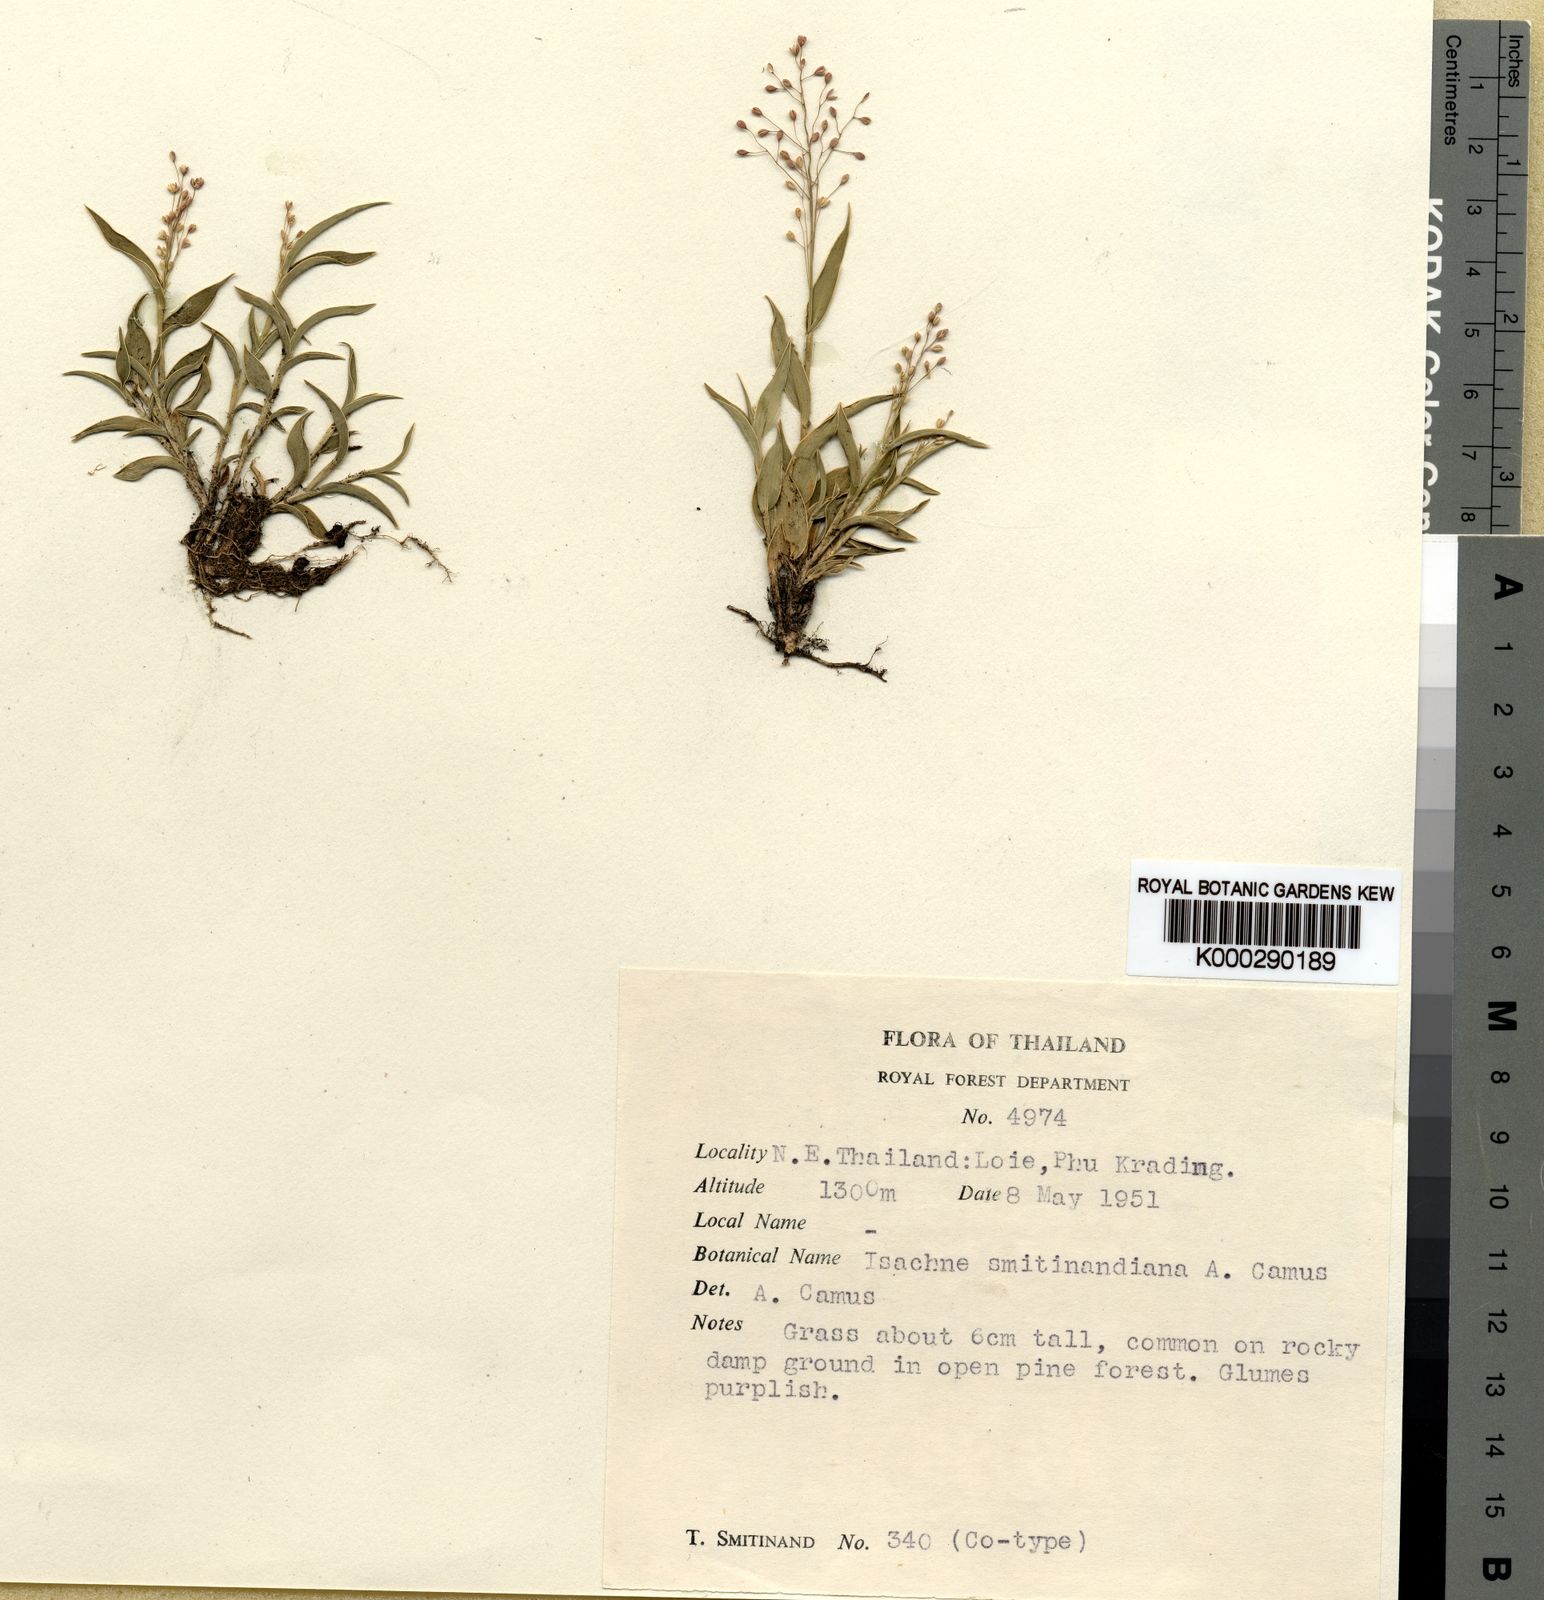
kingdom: Plantae
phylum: Tracheophyta
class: Liliopsida
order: Poales
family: Poaceae
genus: Isachne
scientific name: Isachne smitinandiana
